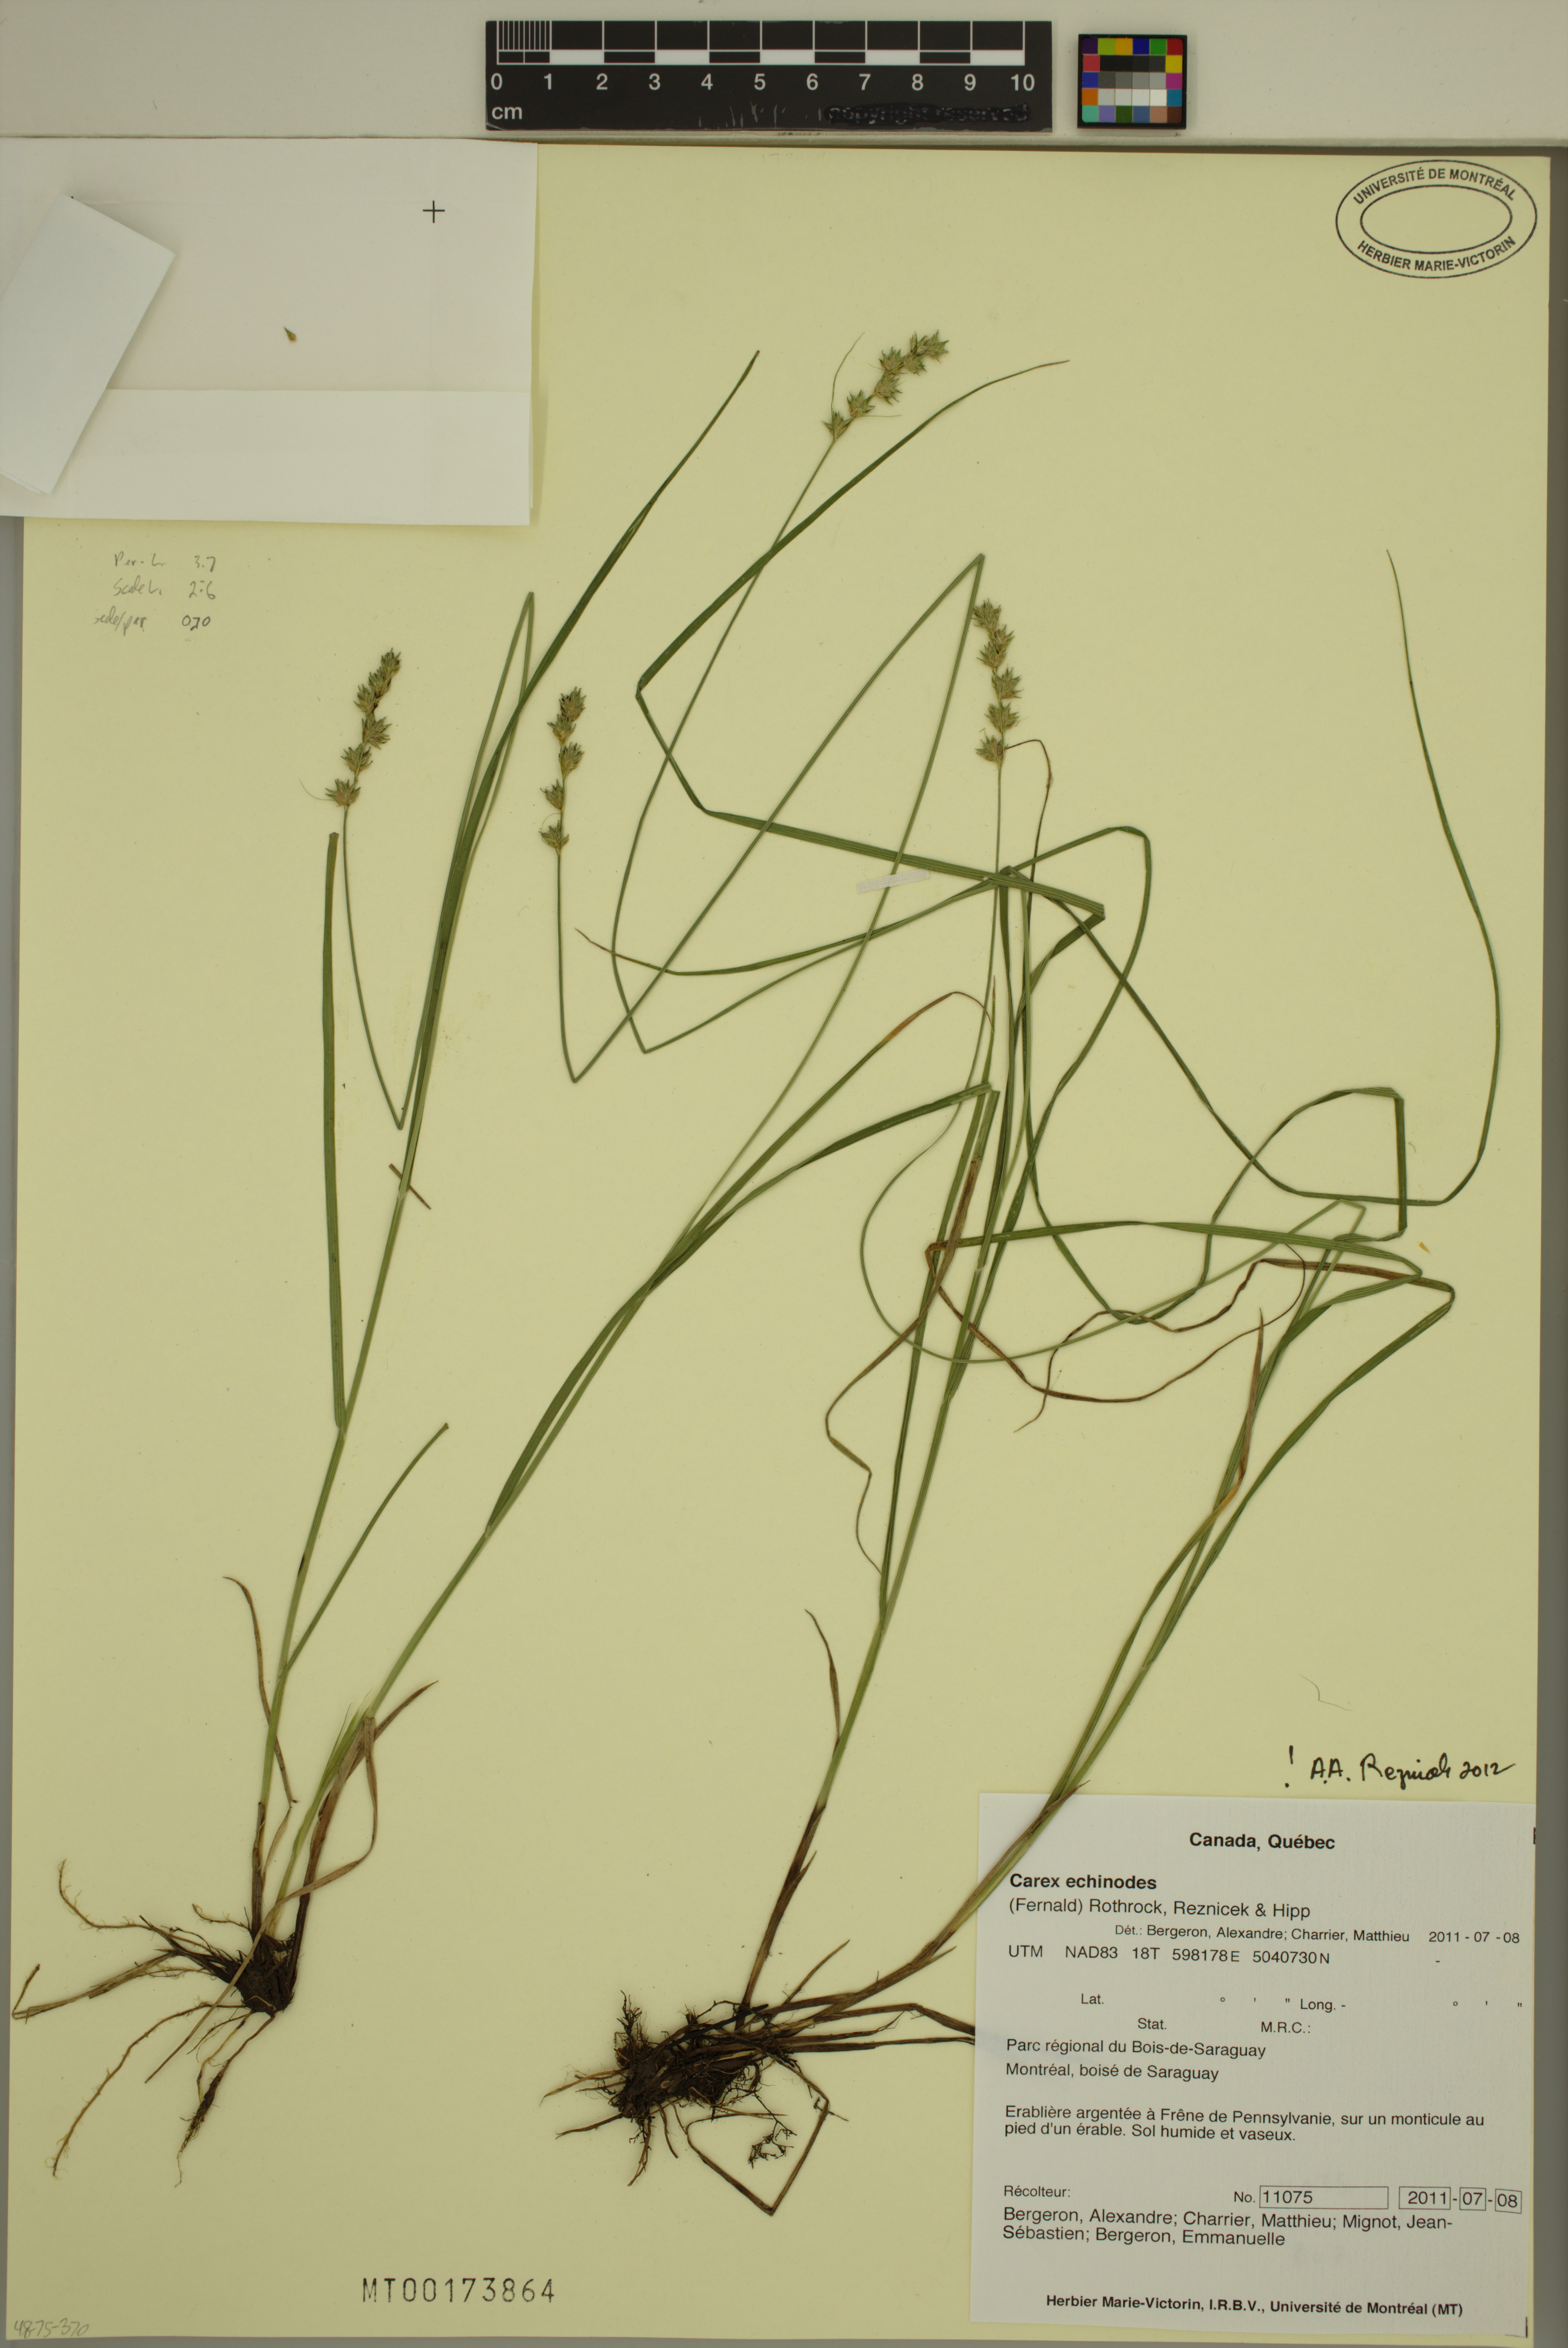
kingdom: Plantae
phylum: Tracheophyta
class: Liliopsida
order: Poales
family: Cyperaceae
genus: Carex
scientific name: Carex echinodes
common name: Marsh straw sedge
